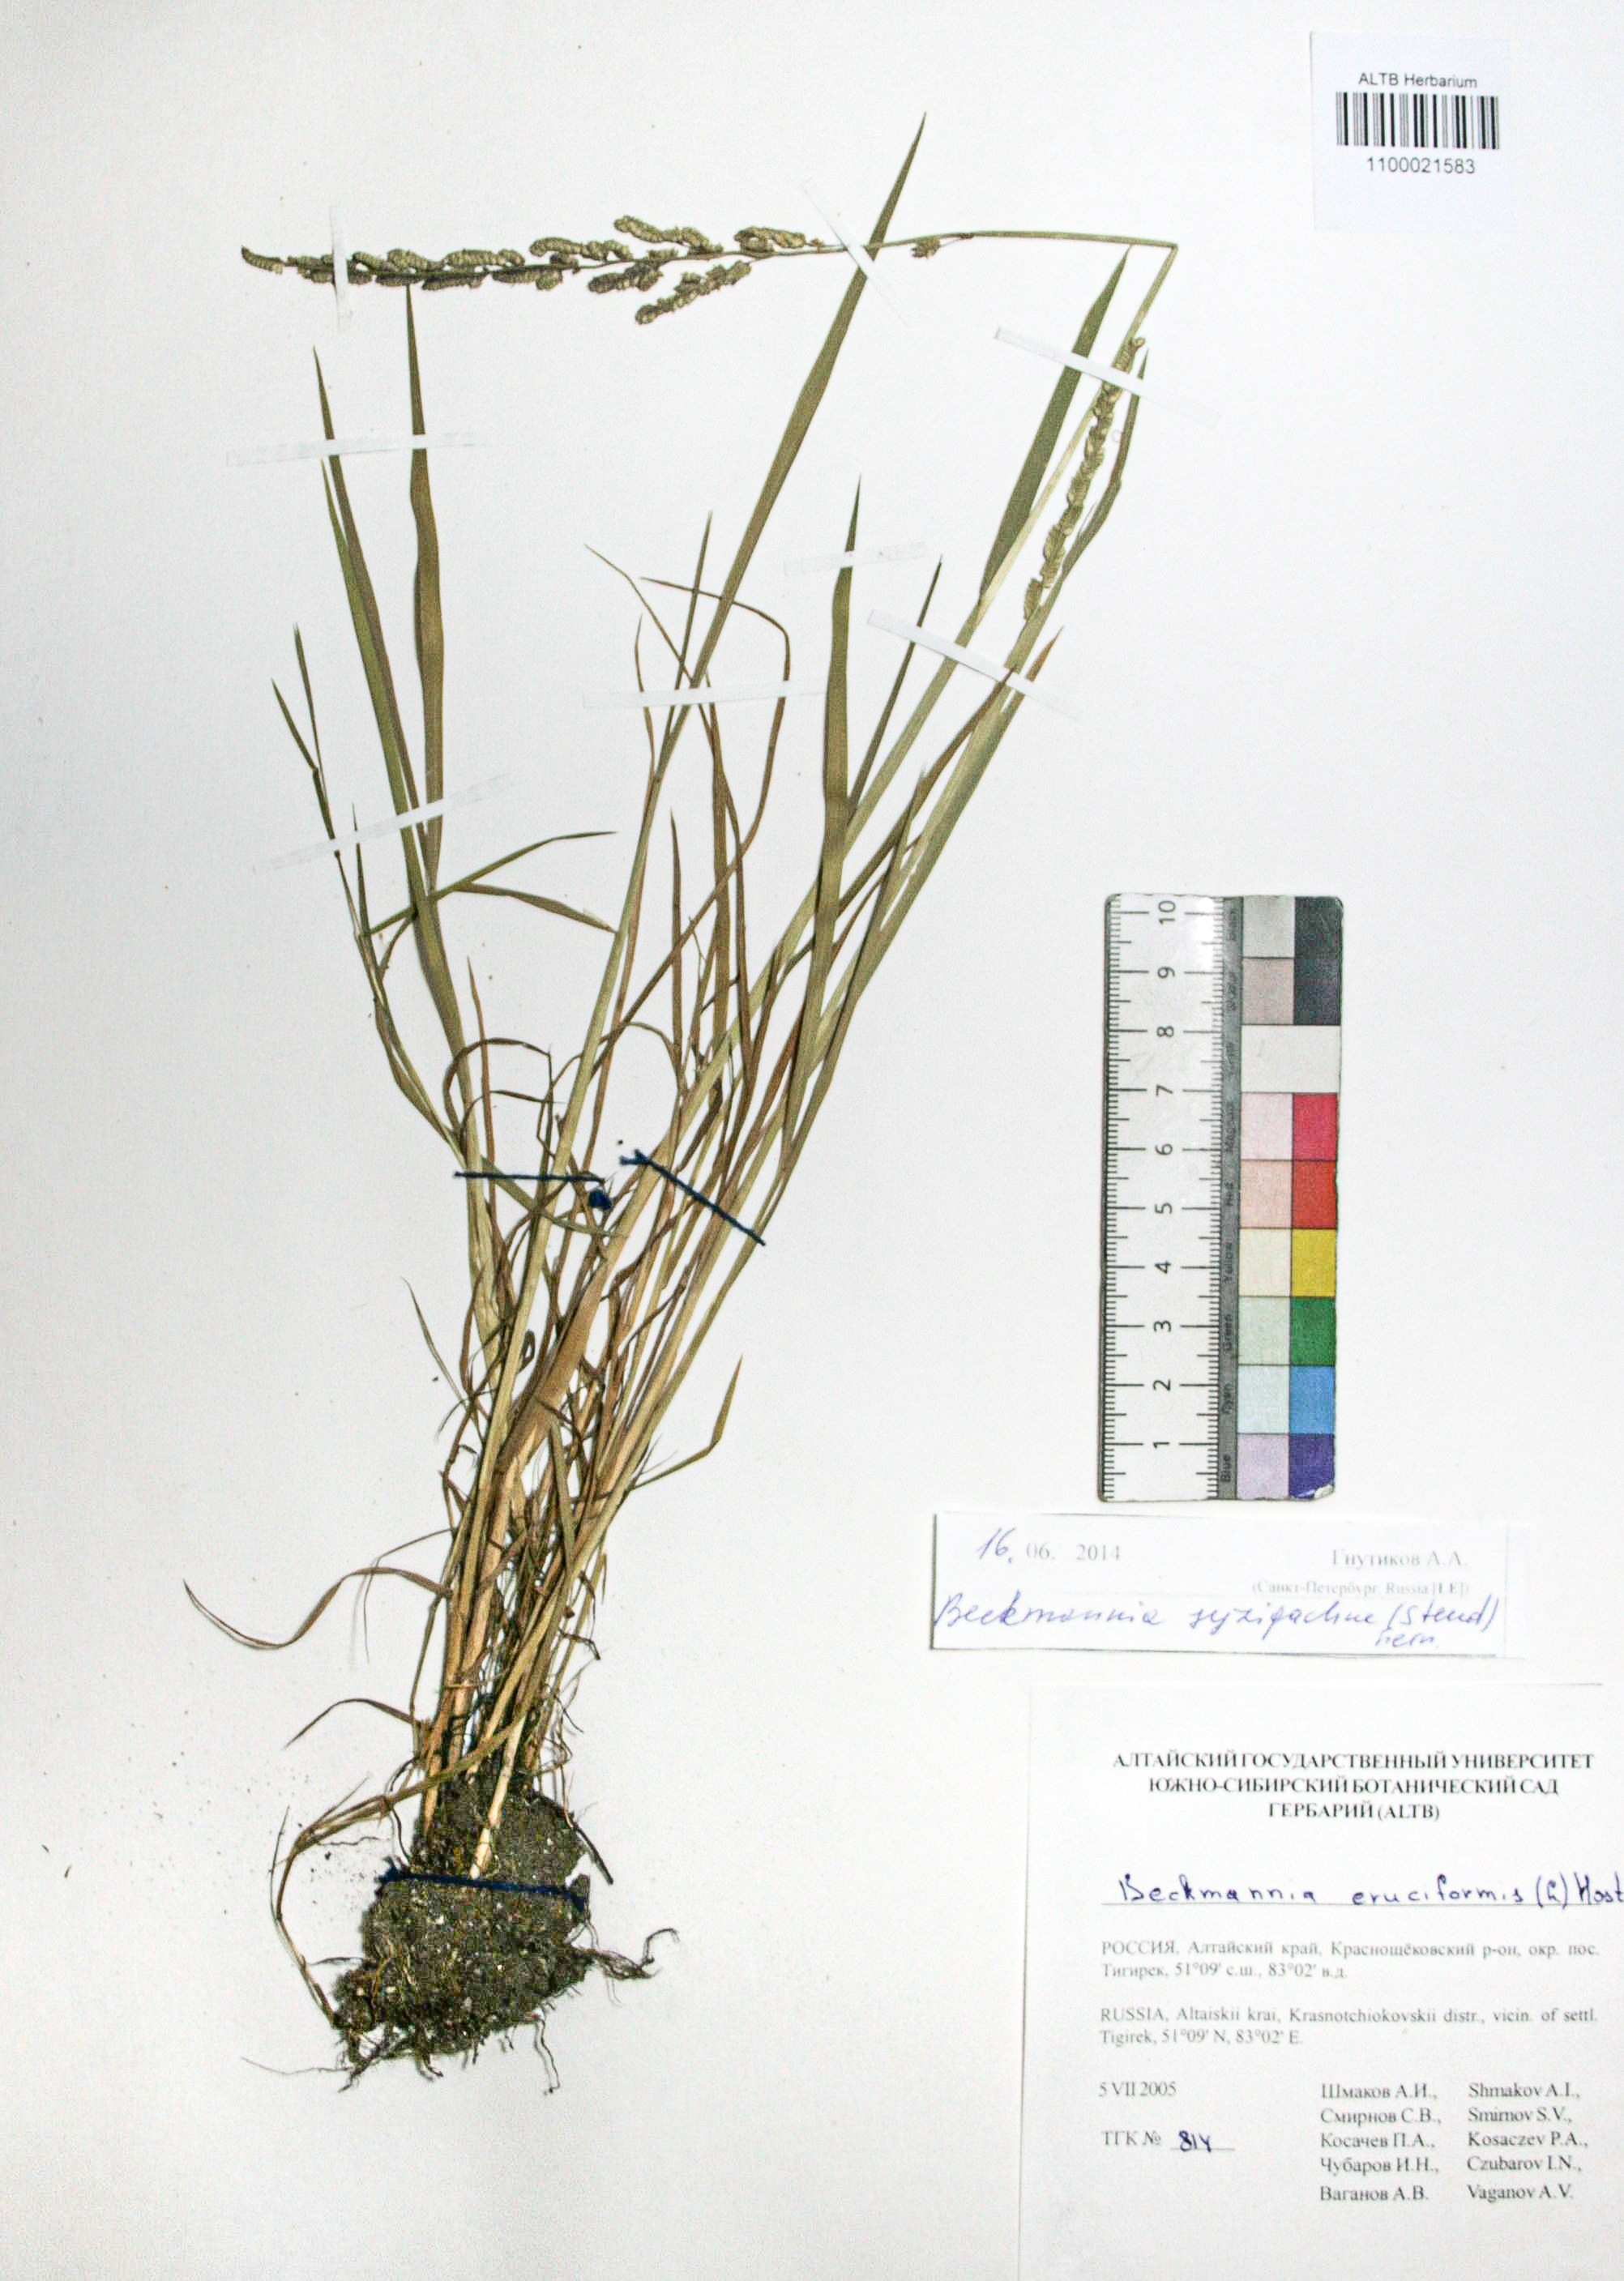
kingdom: Plantae
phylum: Tracheophyta
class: Liliopsida
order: Poales
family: Poaceae
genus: Beckmannia
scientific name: Beckmannia syzigachne
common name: American slough-grass
